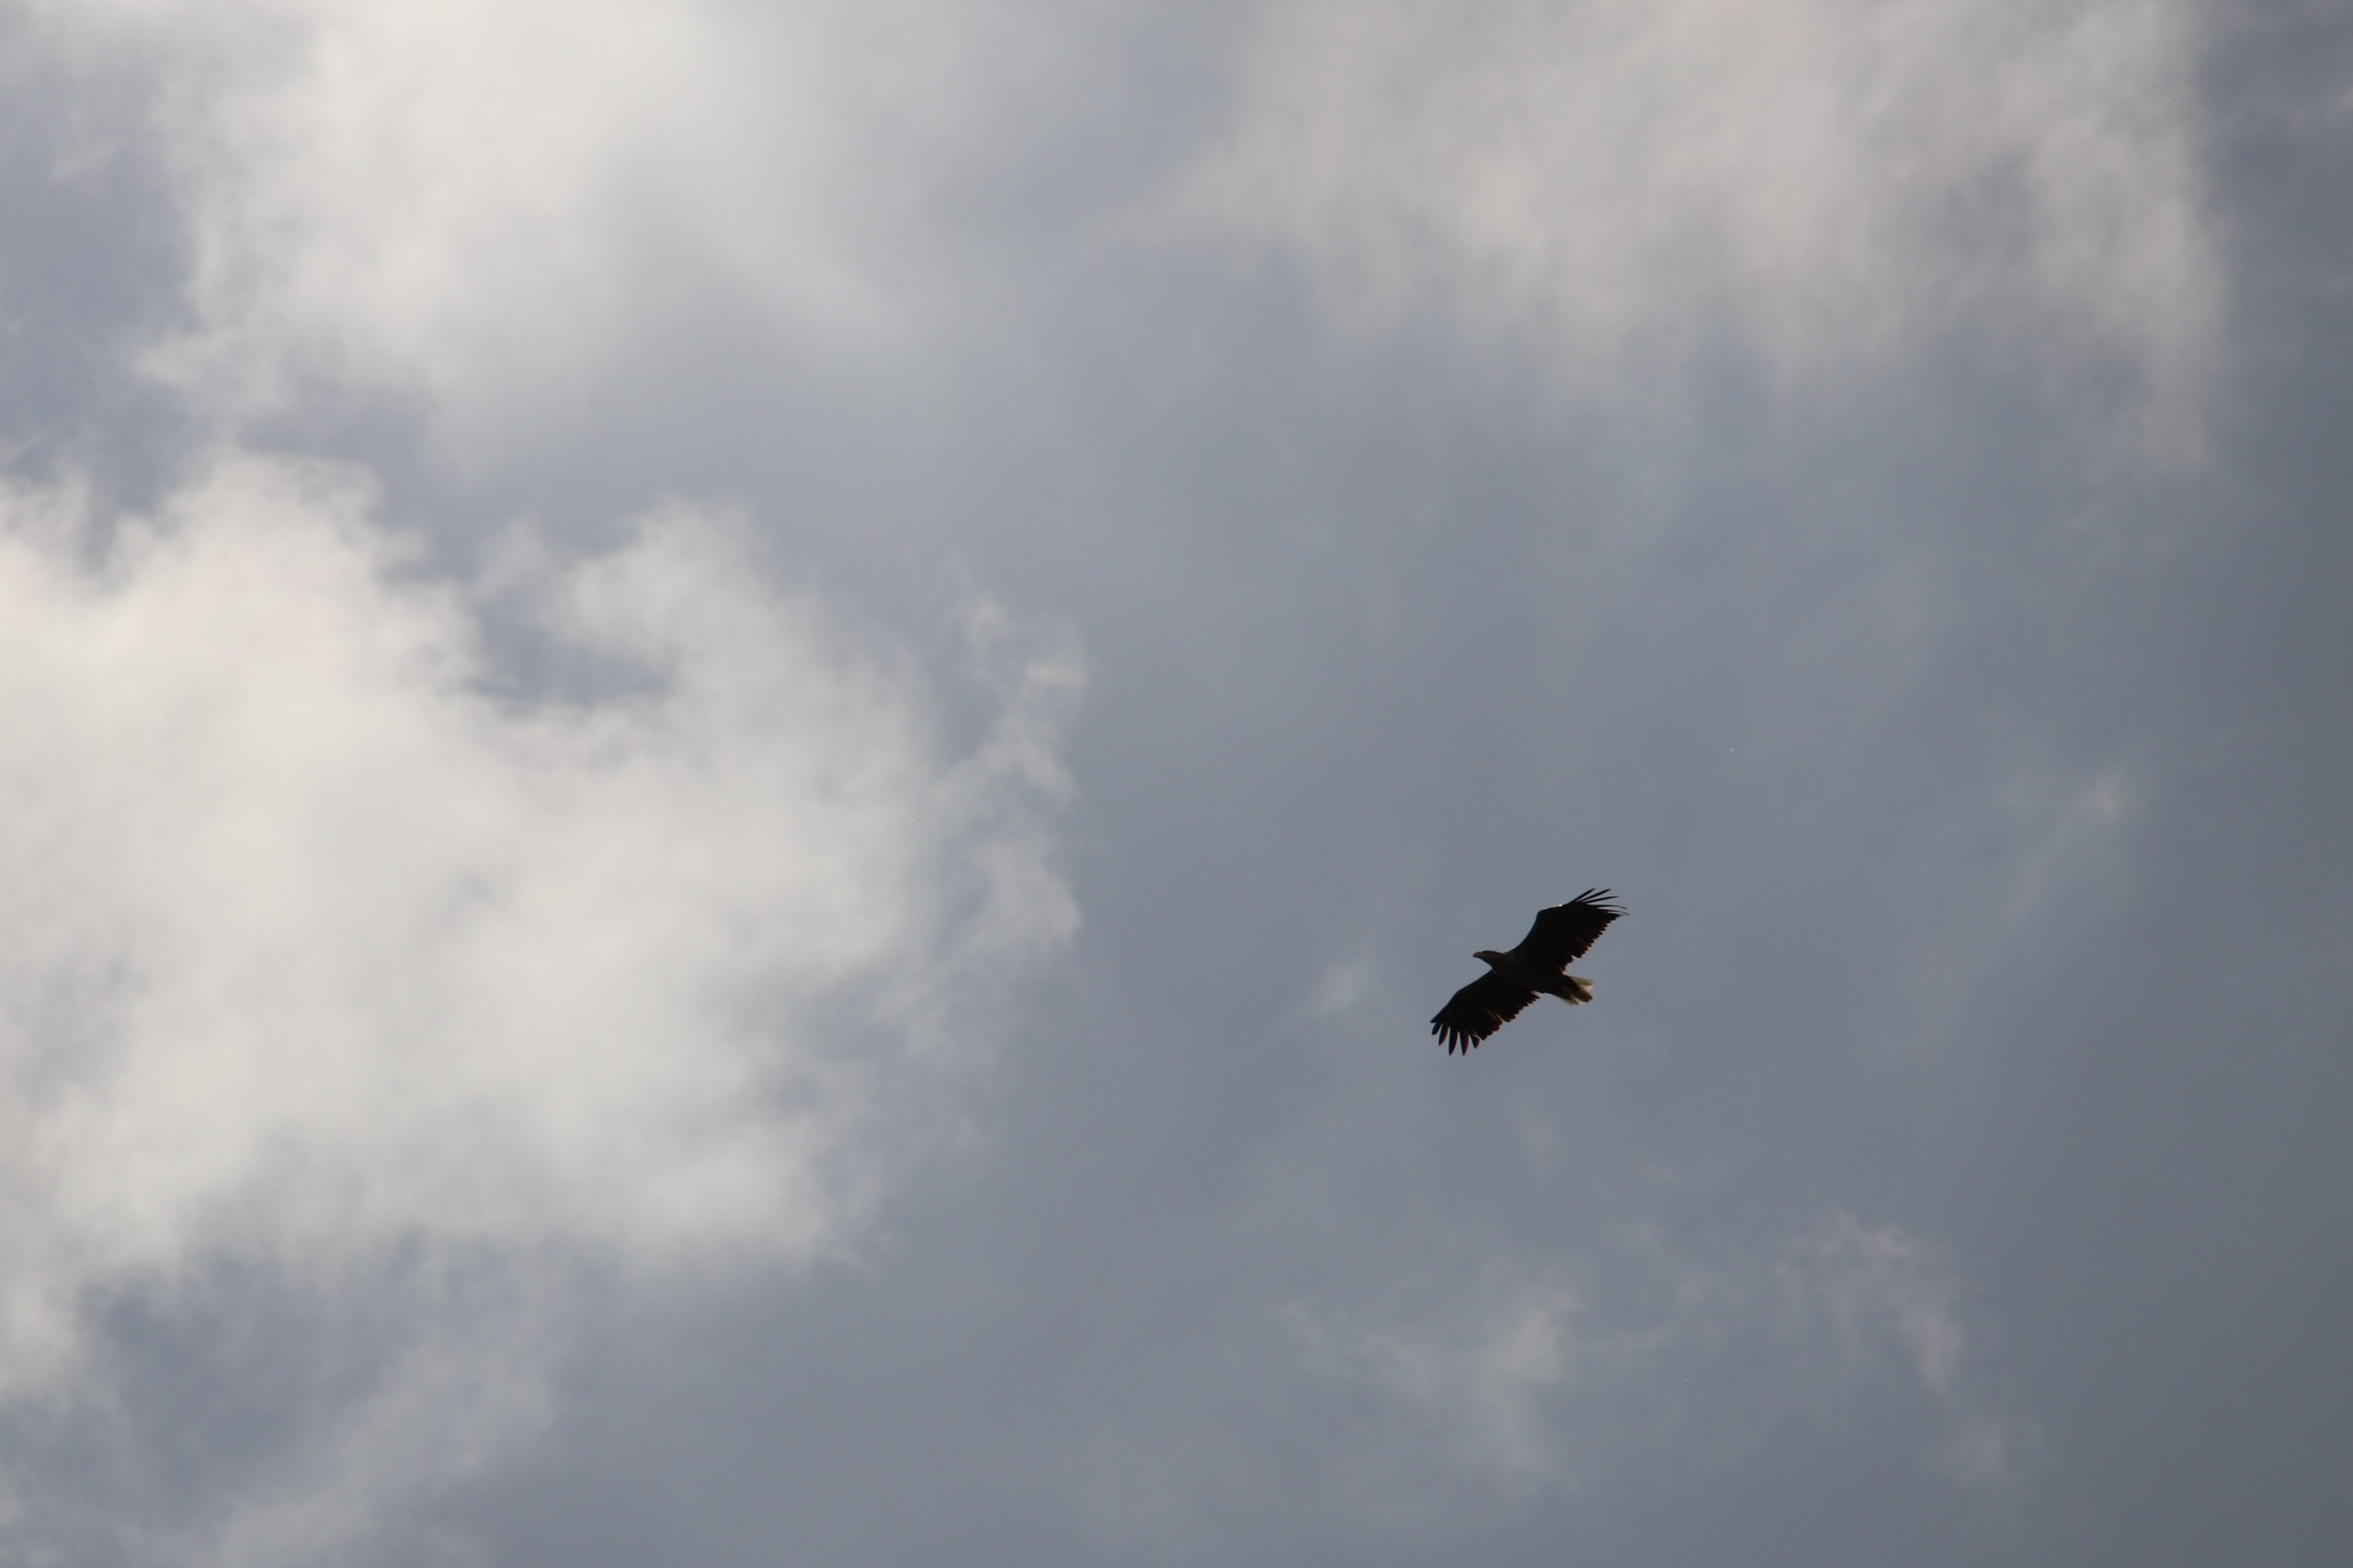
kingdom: Animalia
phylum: Chordata
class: Aves
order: Accipitriformes
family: Accipitridae
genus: Haliaeetus
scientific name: Haliaeetus albicilla
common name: Havørn
